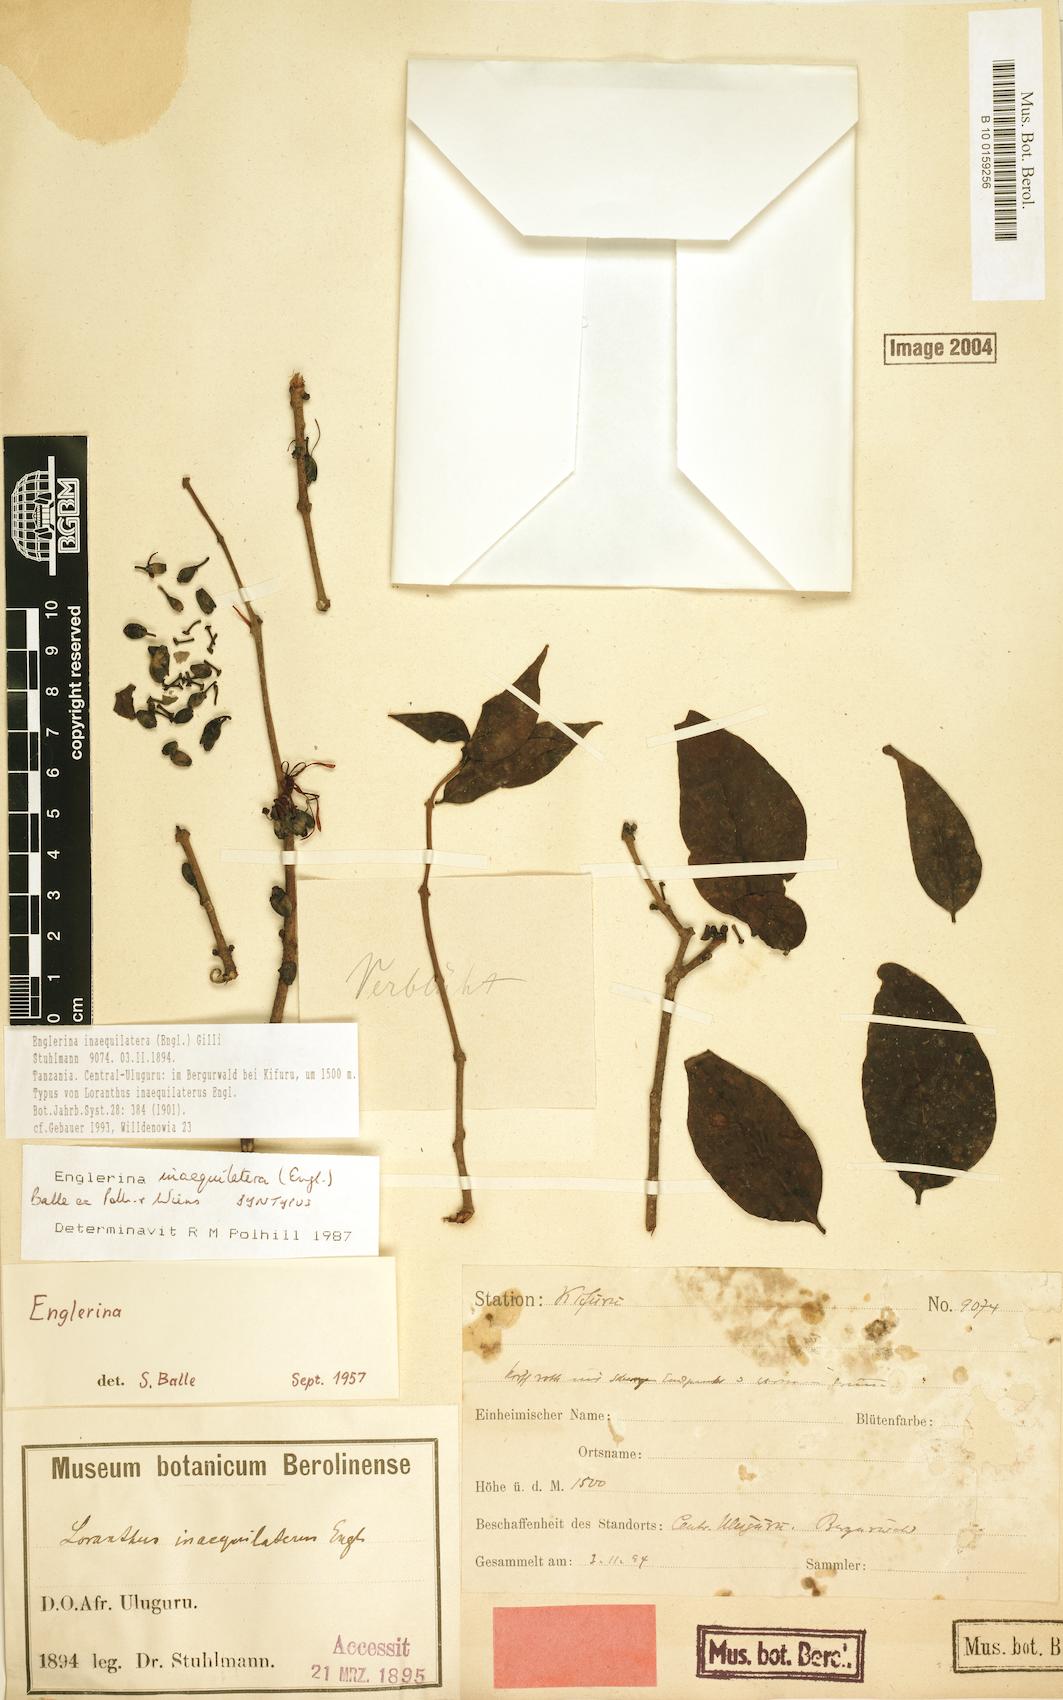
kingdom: Plantae
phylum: Tracheophyta
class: Magnoliopsida
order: Santalales
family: Loranthaceae
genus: Englerina
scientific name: Englerina inaequilatera
